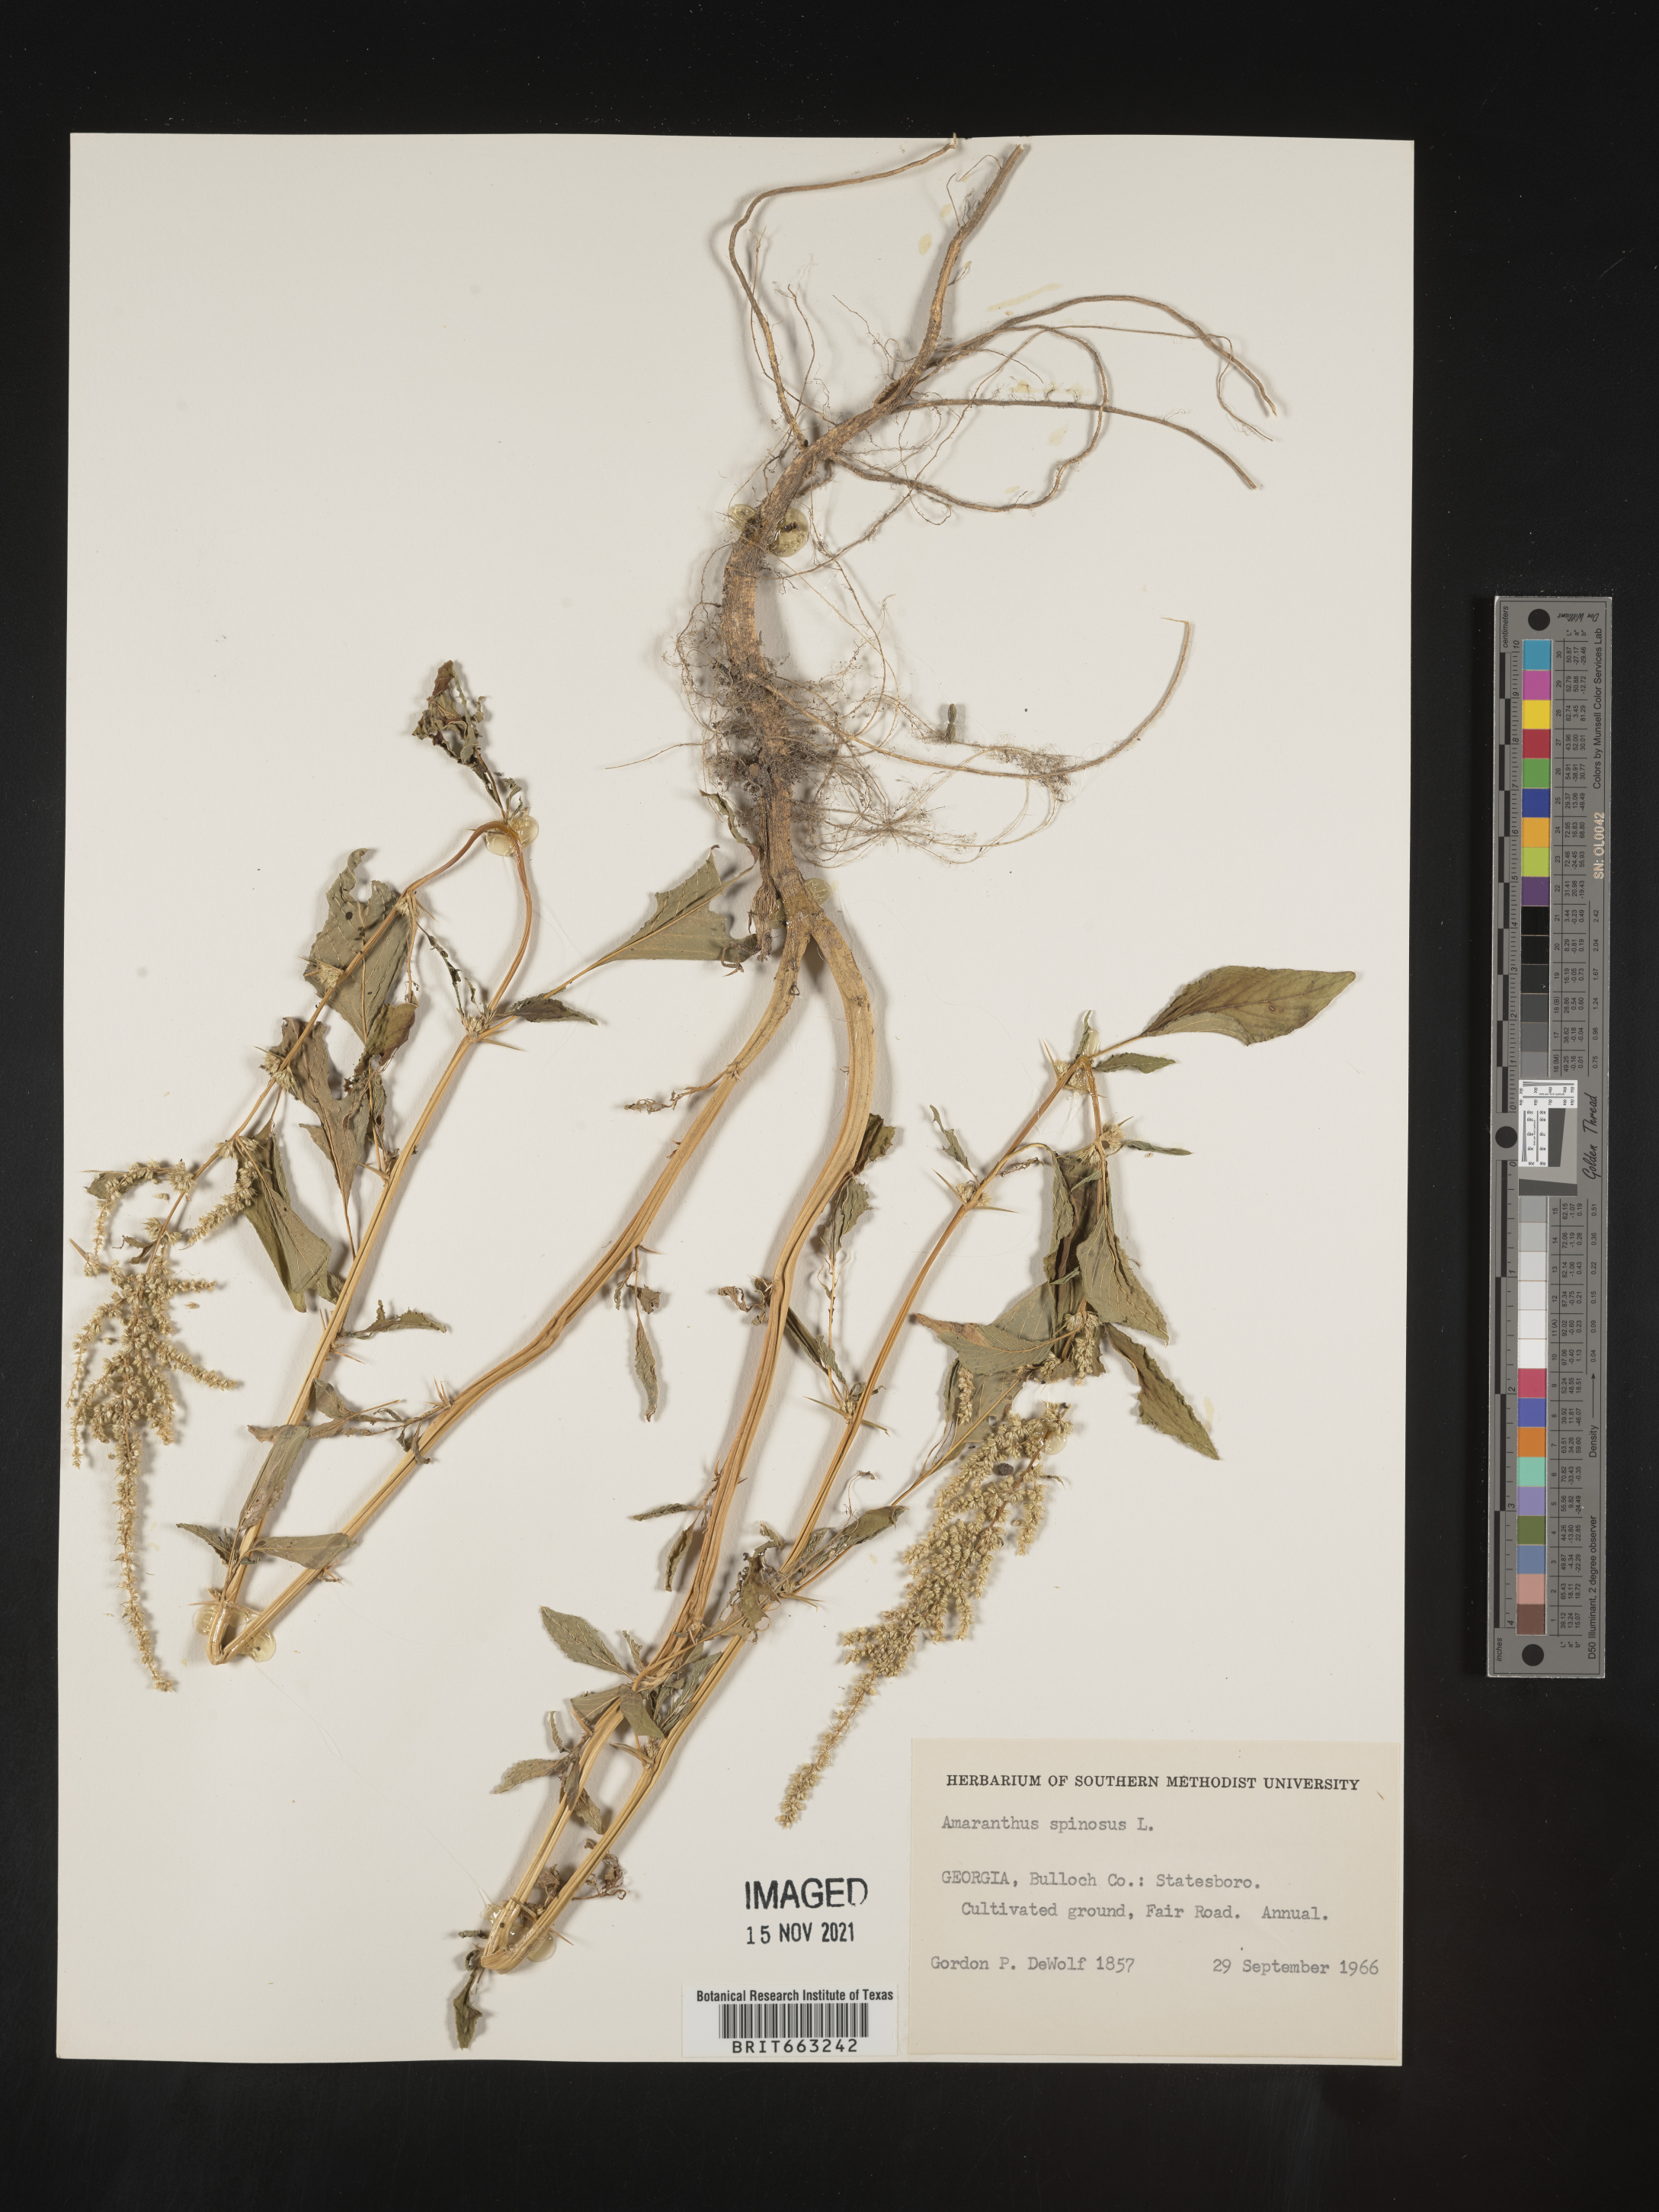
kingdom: Plantae
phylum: Tracheophyta
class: Magnoliopsida
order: Caryophyllales
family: Amaranthaceae
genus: Amaranthus
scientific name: Amaranthus spinosus
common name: Spiny amaranth
